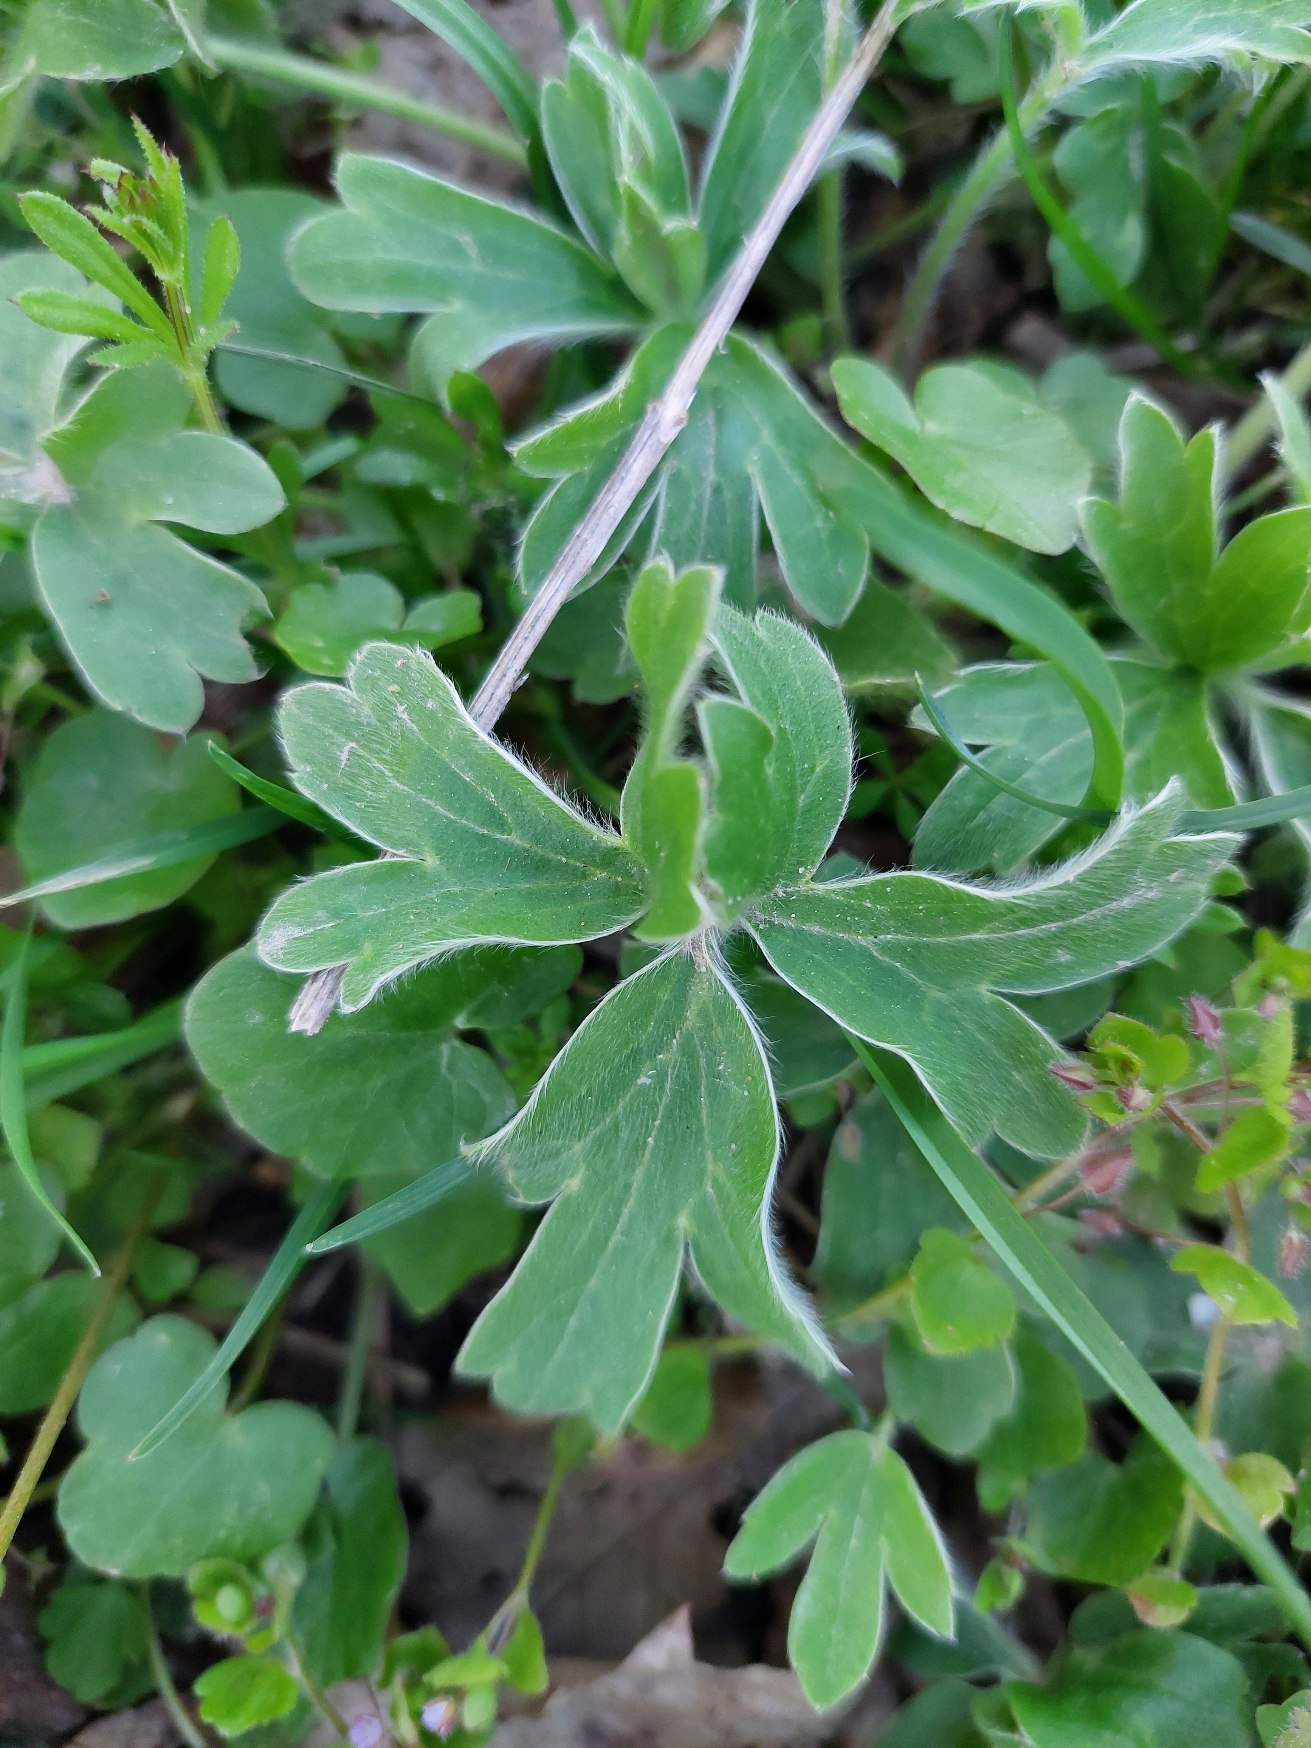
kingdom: Plantae
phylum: Tracheophyta
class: Magnoliopsida
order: Ranunculales
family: Ranunculaceae
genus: Ranunculus
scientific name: Ranunculus psilostachys
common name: Balkan-ranunkel
